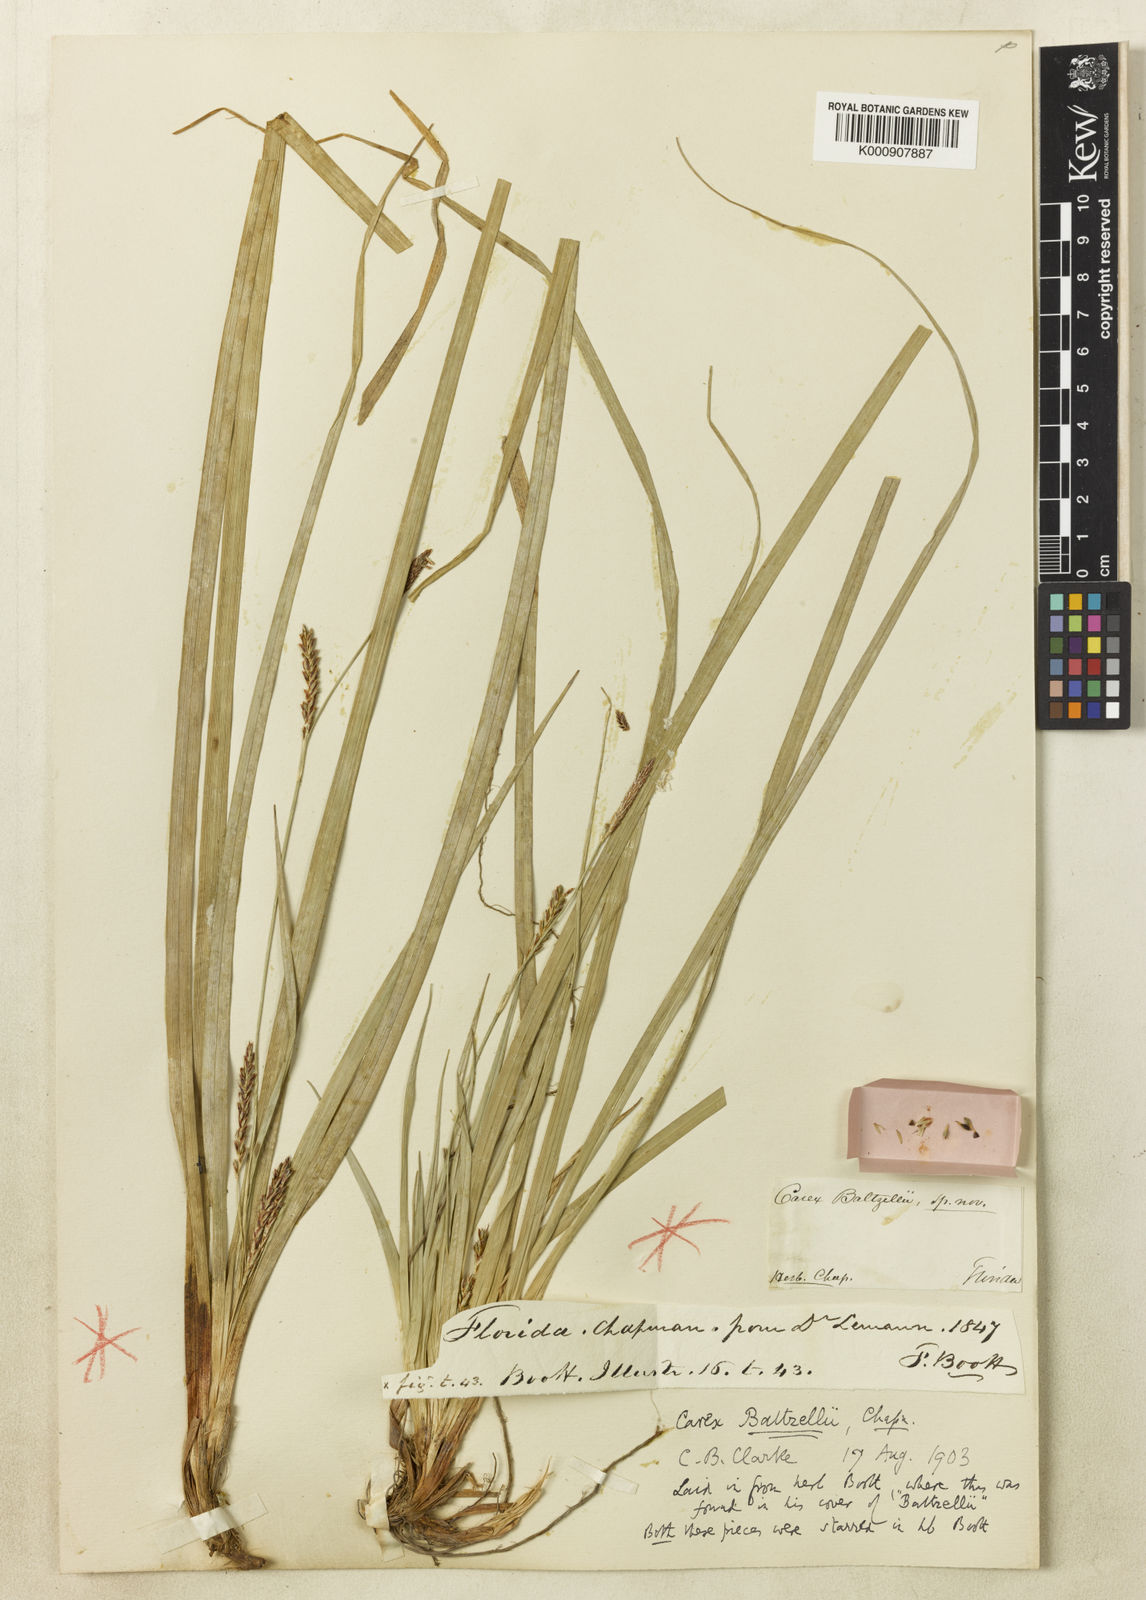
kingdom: Plantae
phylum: Tracheophyta
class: Liliopsida
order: Poales
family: Cyperaceae
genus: Carex
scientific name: Carex baltzellii
